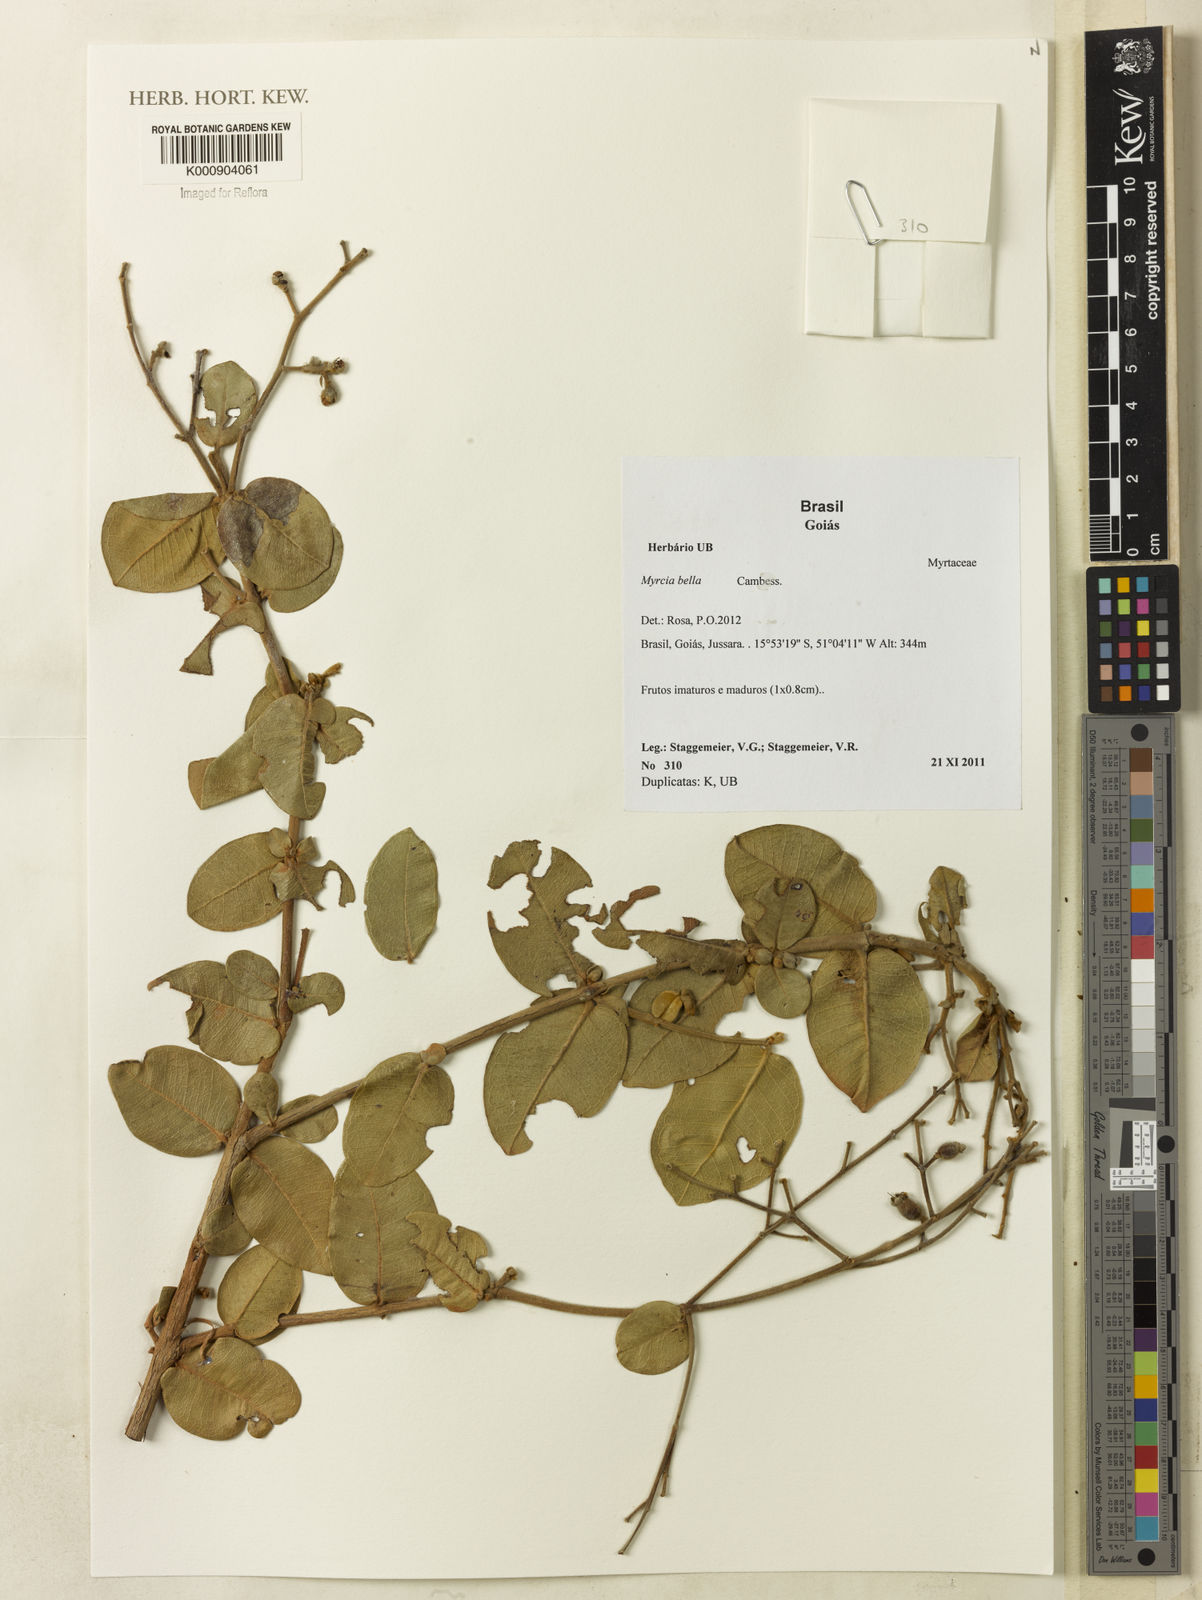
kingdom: Plantae
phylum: Tracheophyta
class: Magnoliopsida
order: Myrtales
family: Myrtaceae
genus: Myrcia
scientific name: Myrcia bella
